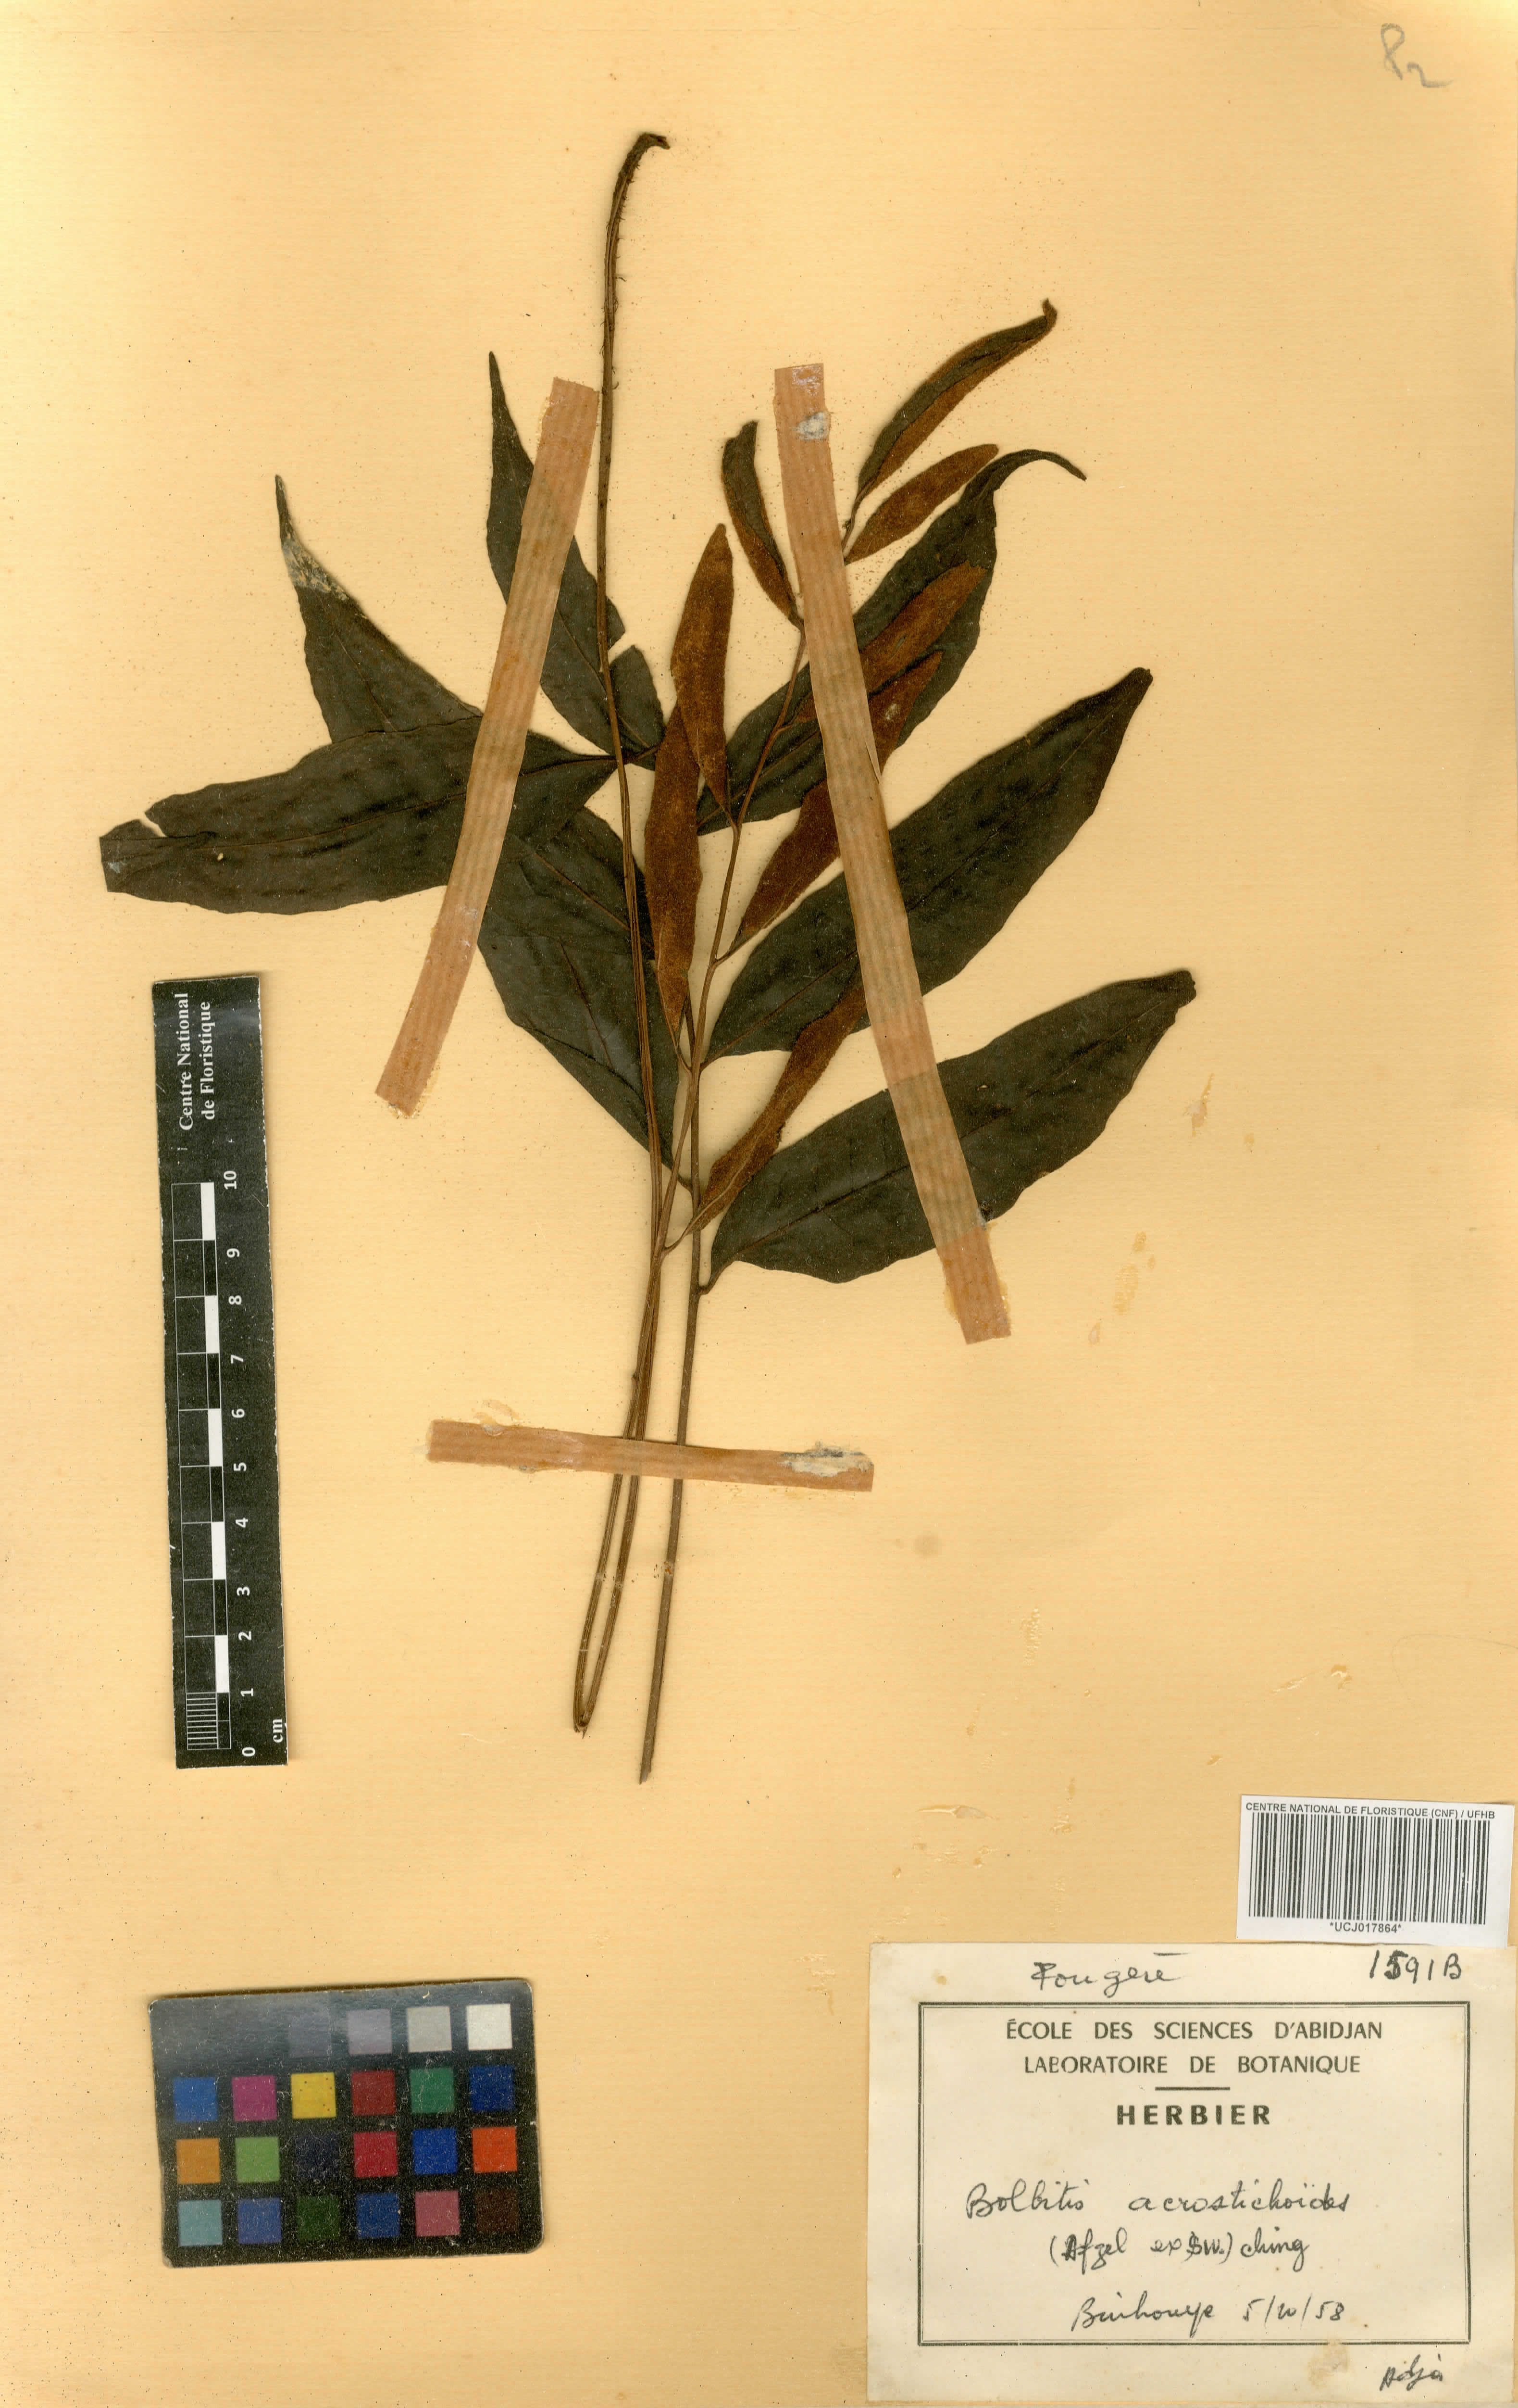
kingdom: Plantae
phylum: Tracheophyta
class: Polypodiopsida
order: Polypodiales
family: Dryopteridaceae
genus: Bolbitis
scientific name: Bolbitis acrostichoides
